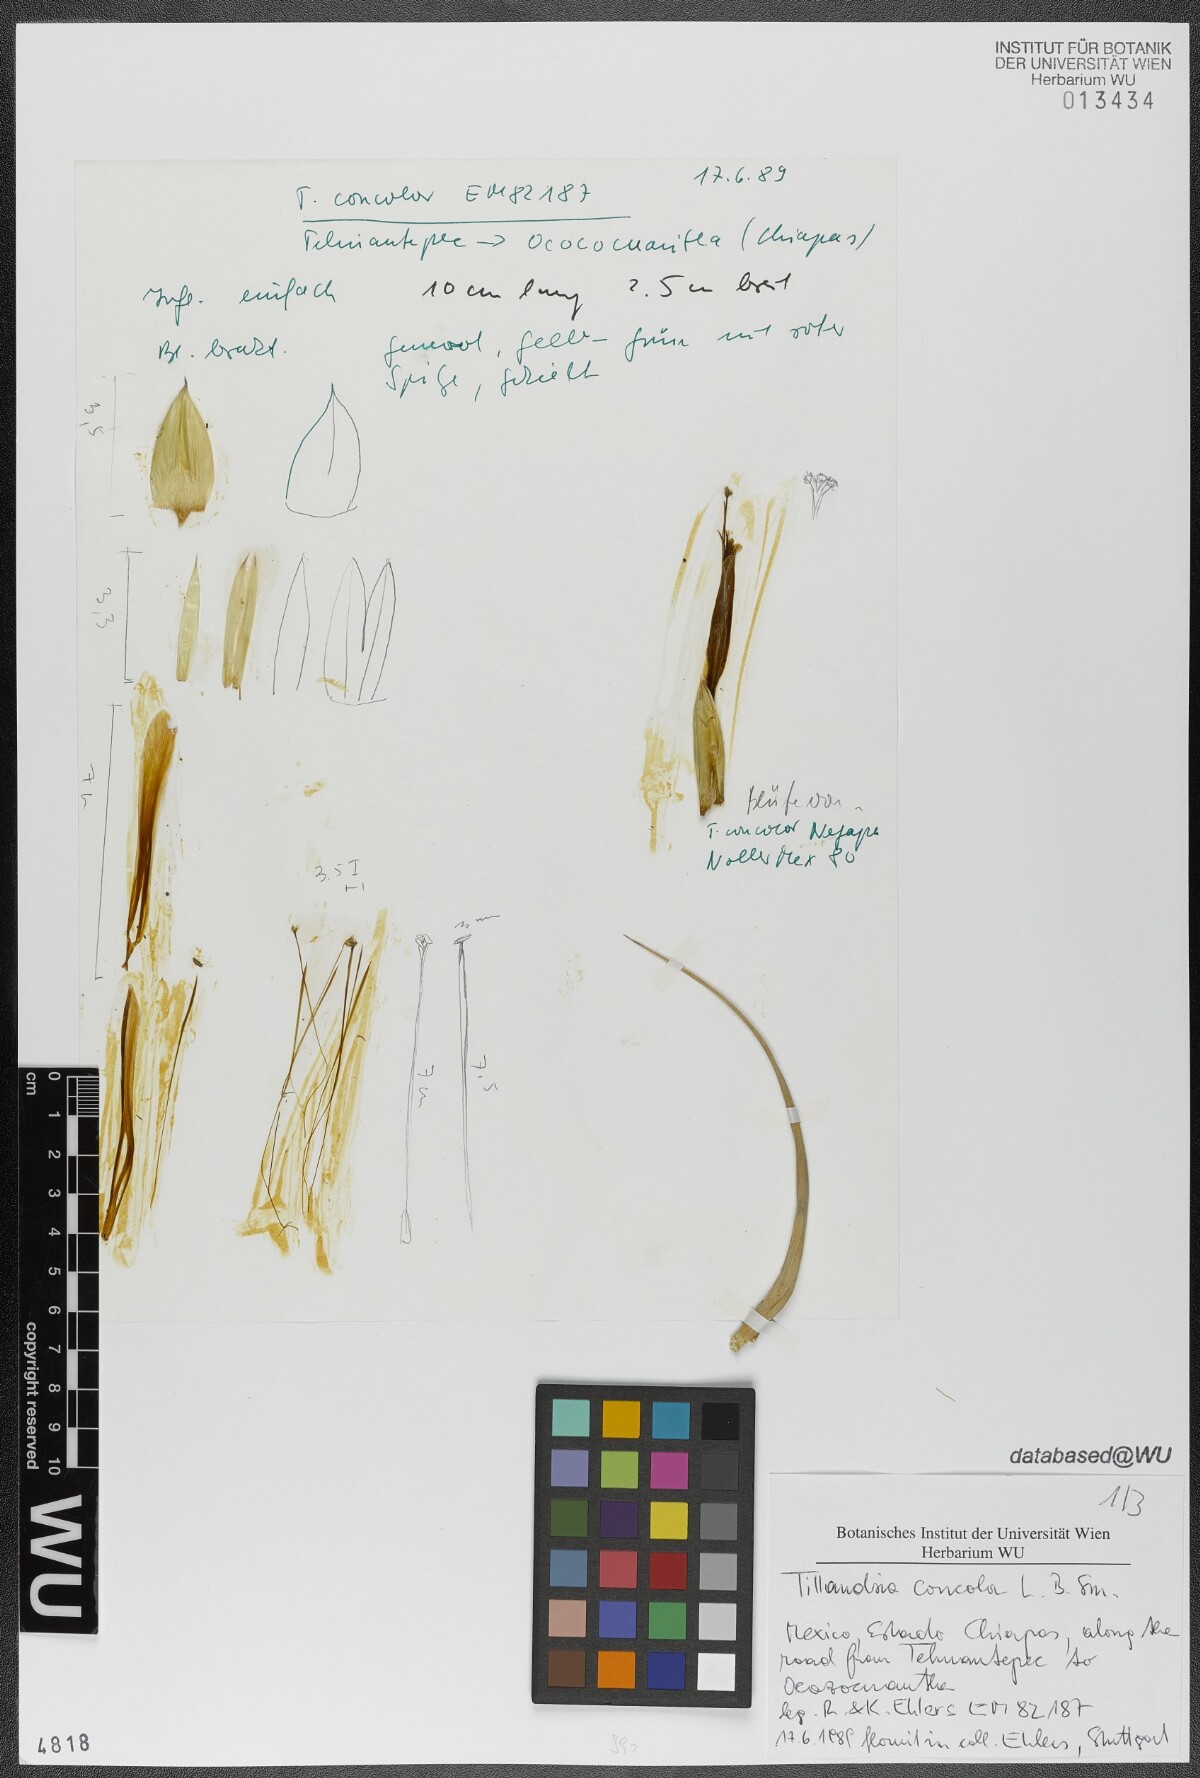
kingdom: Plantae
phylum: Tracheophyta
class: Liliopsida
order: Poales
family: Bromeliaceae
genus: Tillandsia
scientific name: Tillandsia concolor
